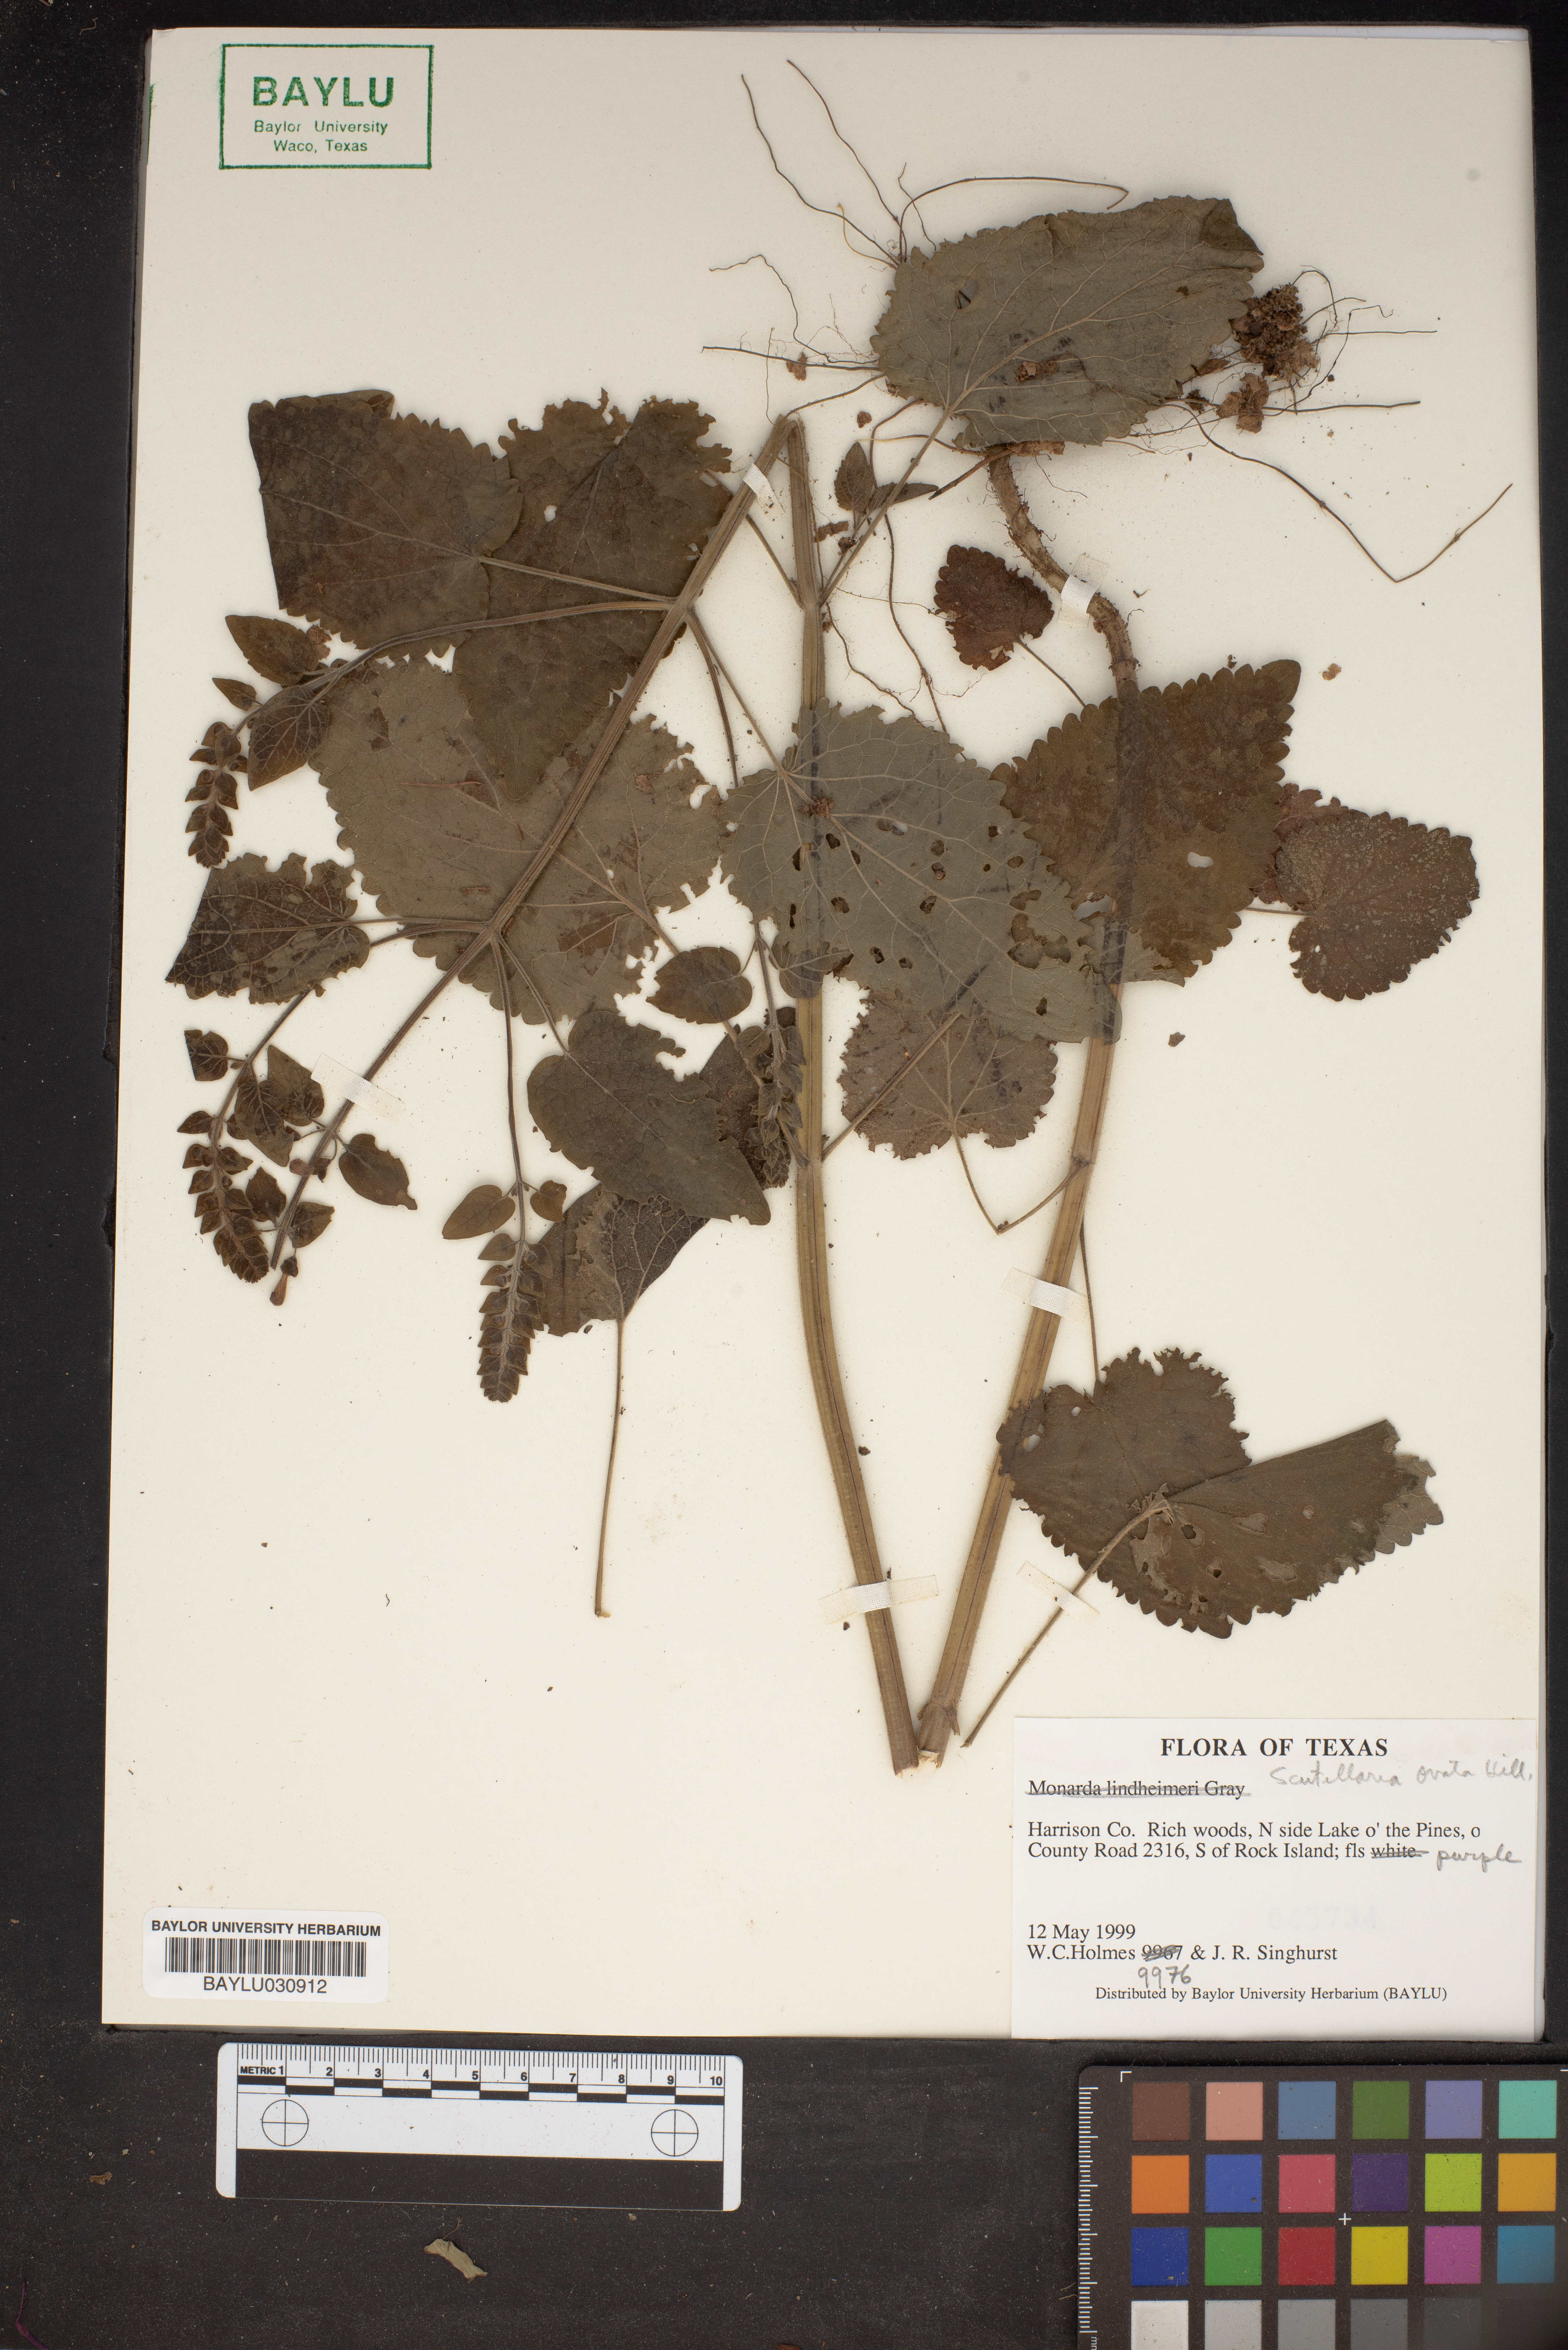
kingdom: Plantae
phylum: Tracheophyta
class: Magnoliopsida
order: Lamiales
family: Lamiaceae
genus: Scutellaria
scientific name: Scutellaria ovata
